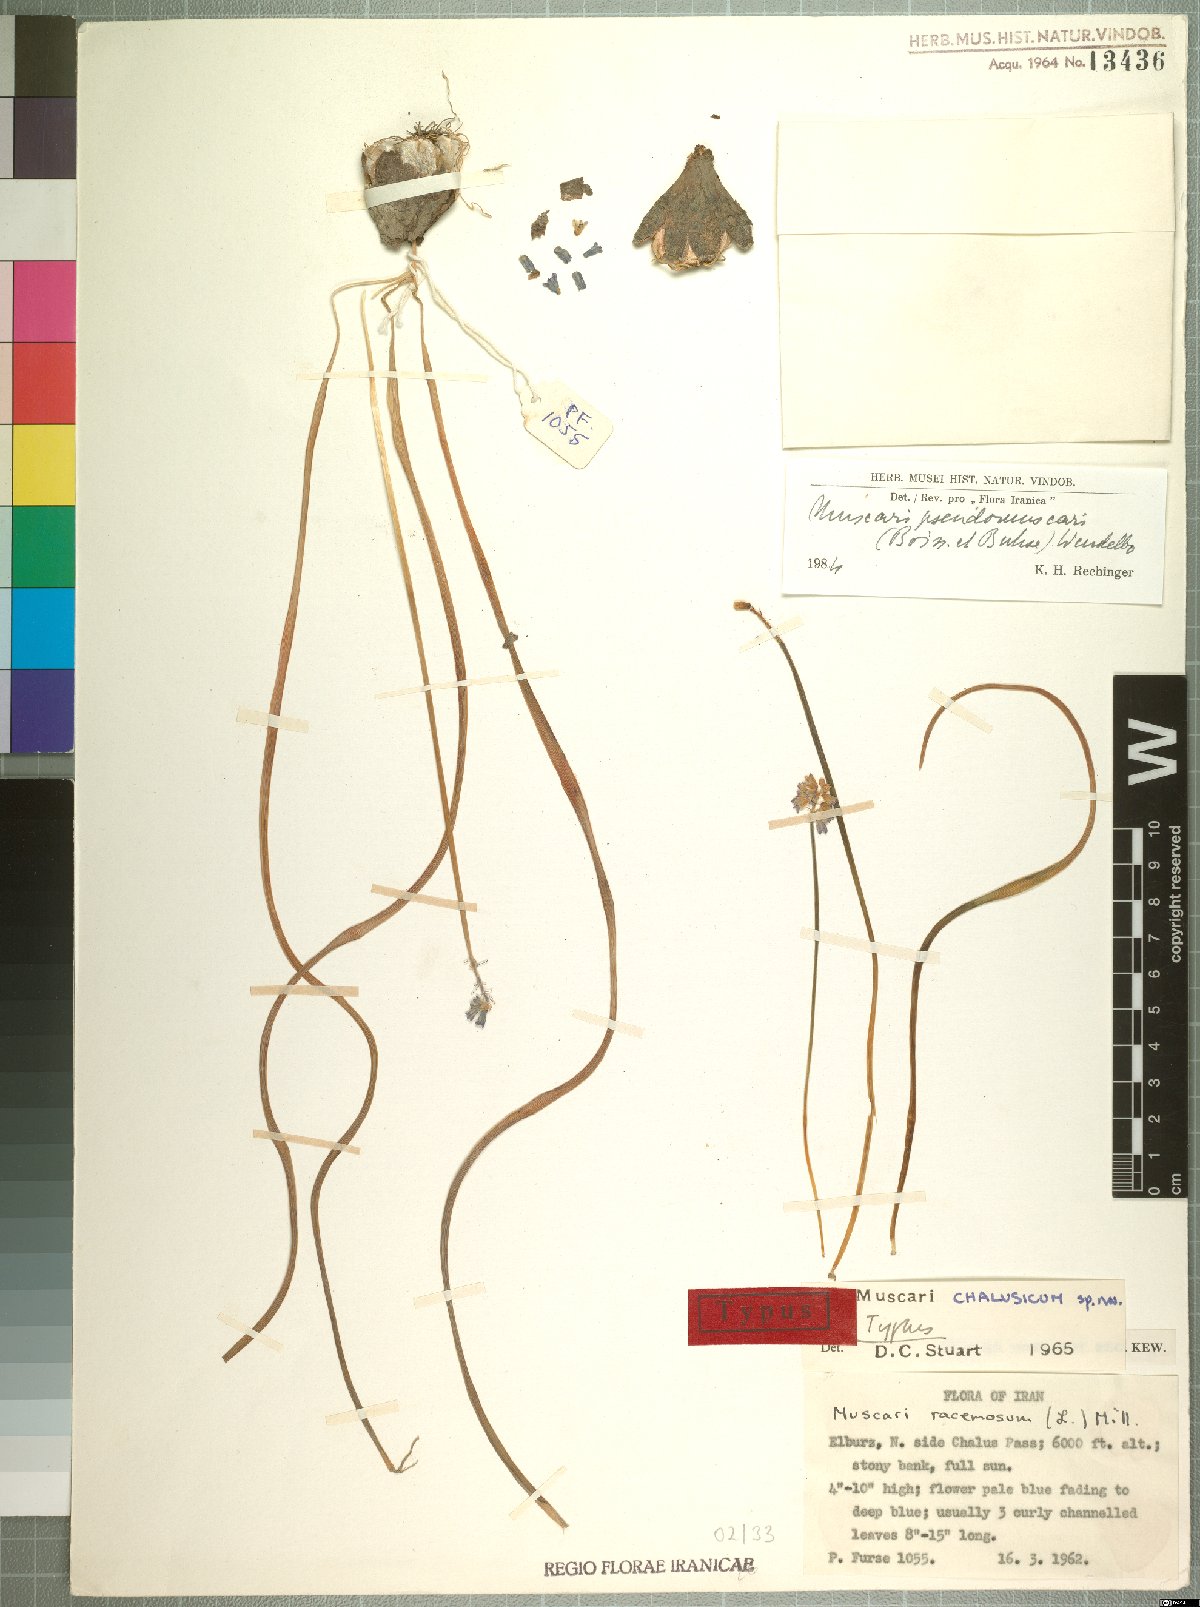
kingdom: Plantae
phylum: Tracheophyta
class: Liliopsida
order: Asparagales
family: Asparagaceae
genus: Muscari
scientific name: Muscari chalusicum
